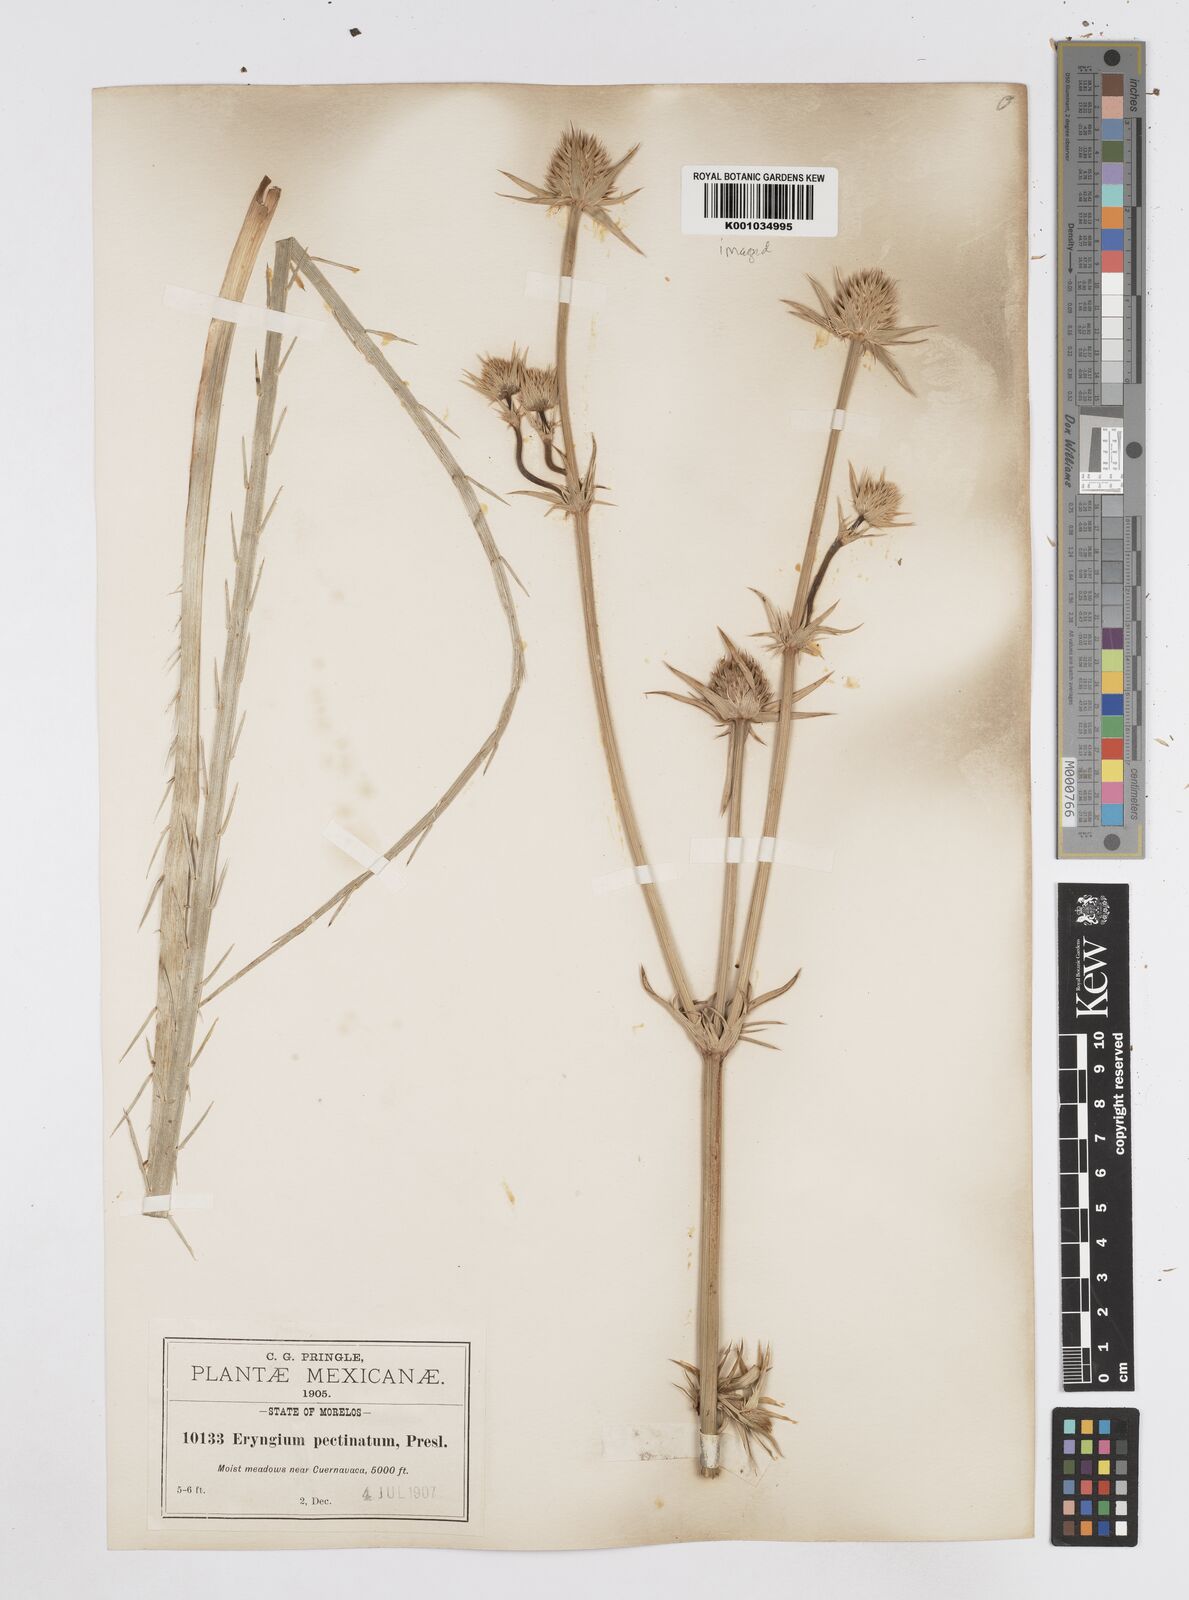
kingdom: Plantae
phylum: Tracheophyta
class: Magnoliopsida
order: Apiales
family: Apiaceae
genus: Eryngium
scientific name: Eryngium pectinatum
